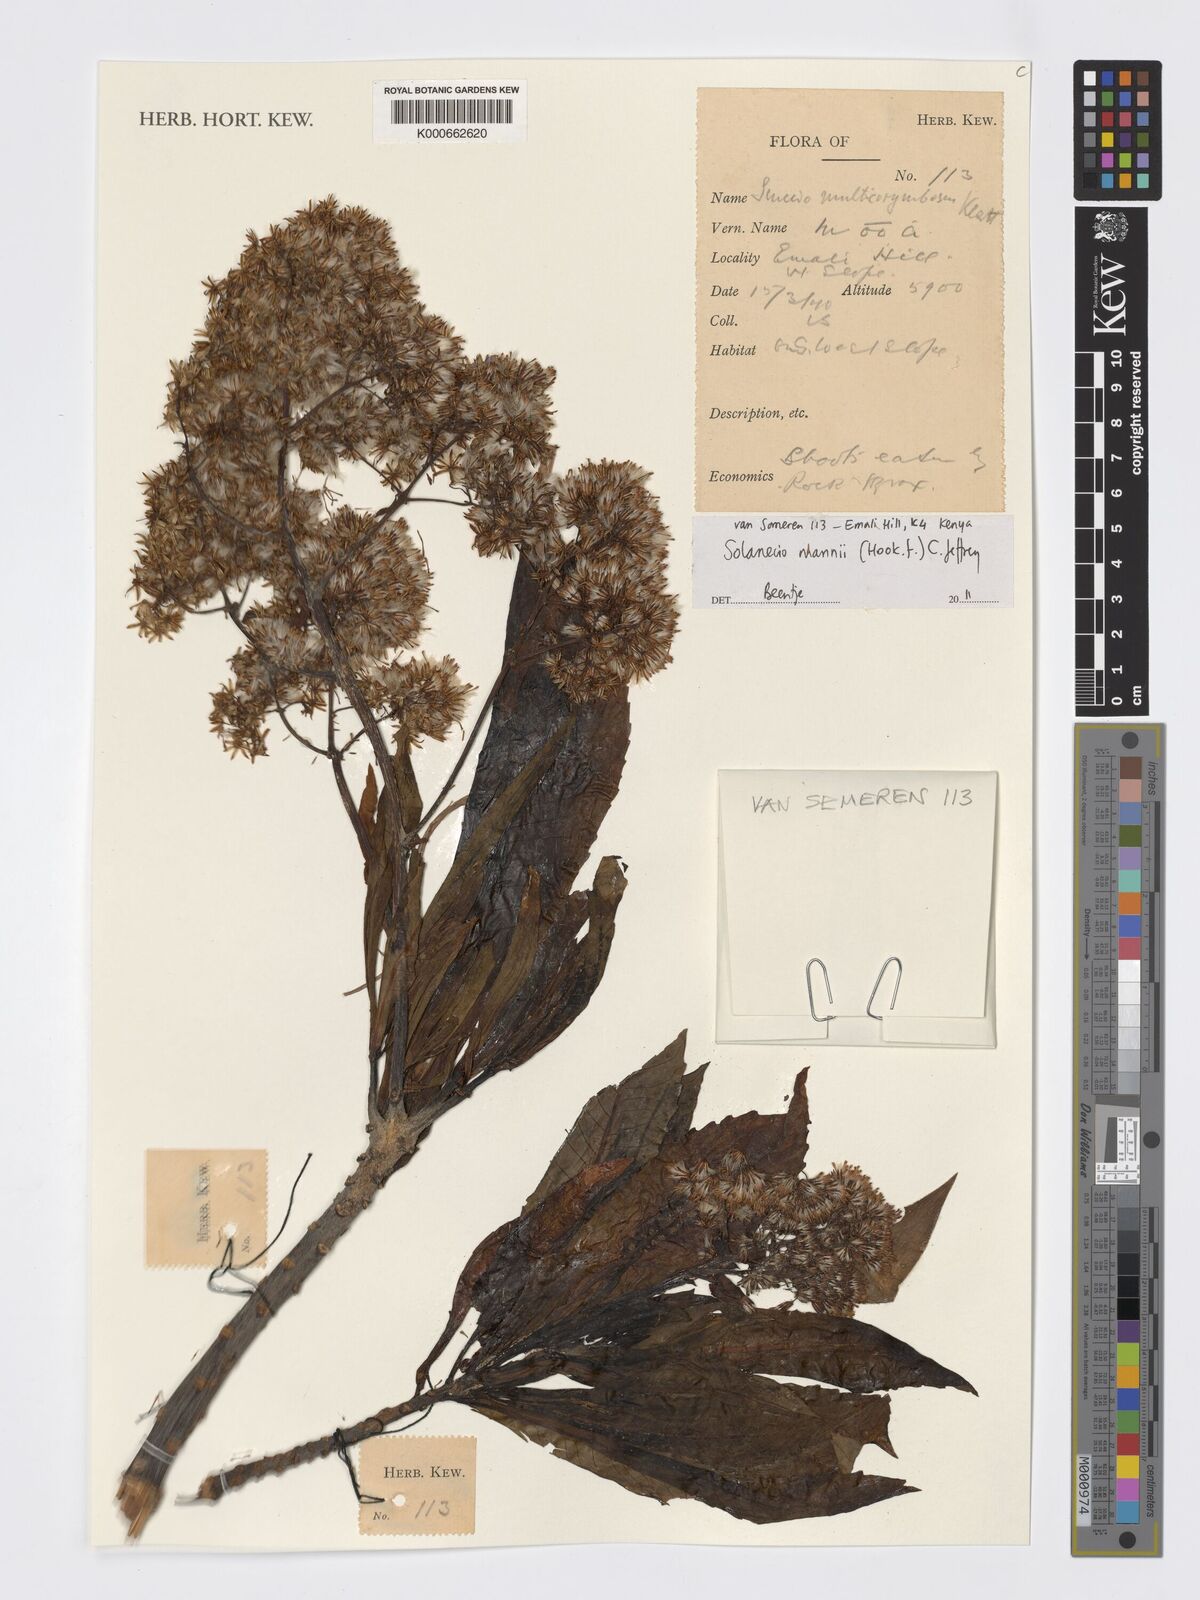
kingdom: Plantae
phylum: Tracheophyta
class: Magnoliopsida
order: Asterales
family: Asteraceae
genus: Solanecio
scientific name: Solanecio mannii
